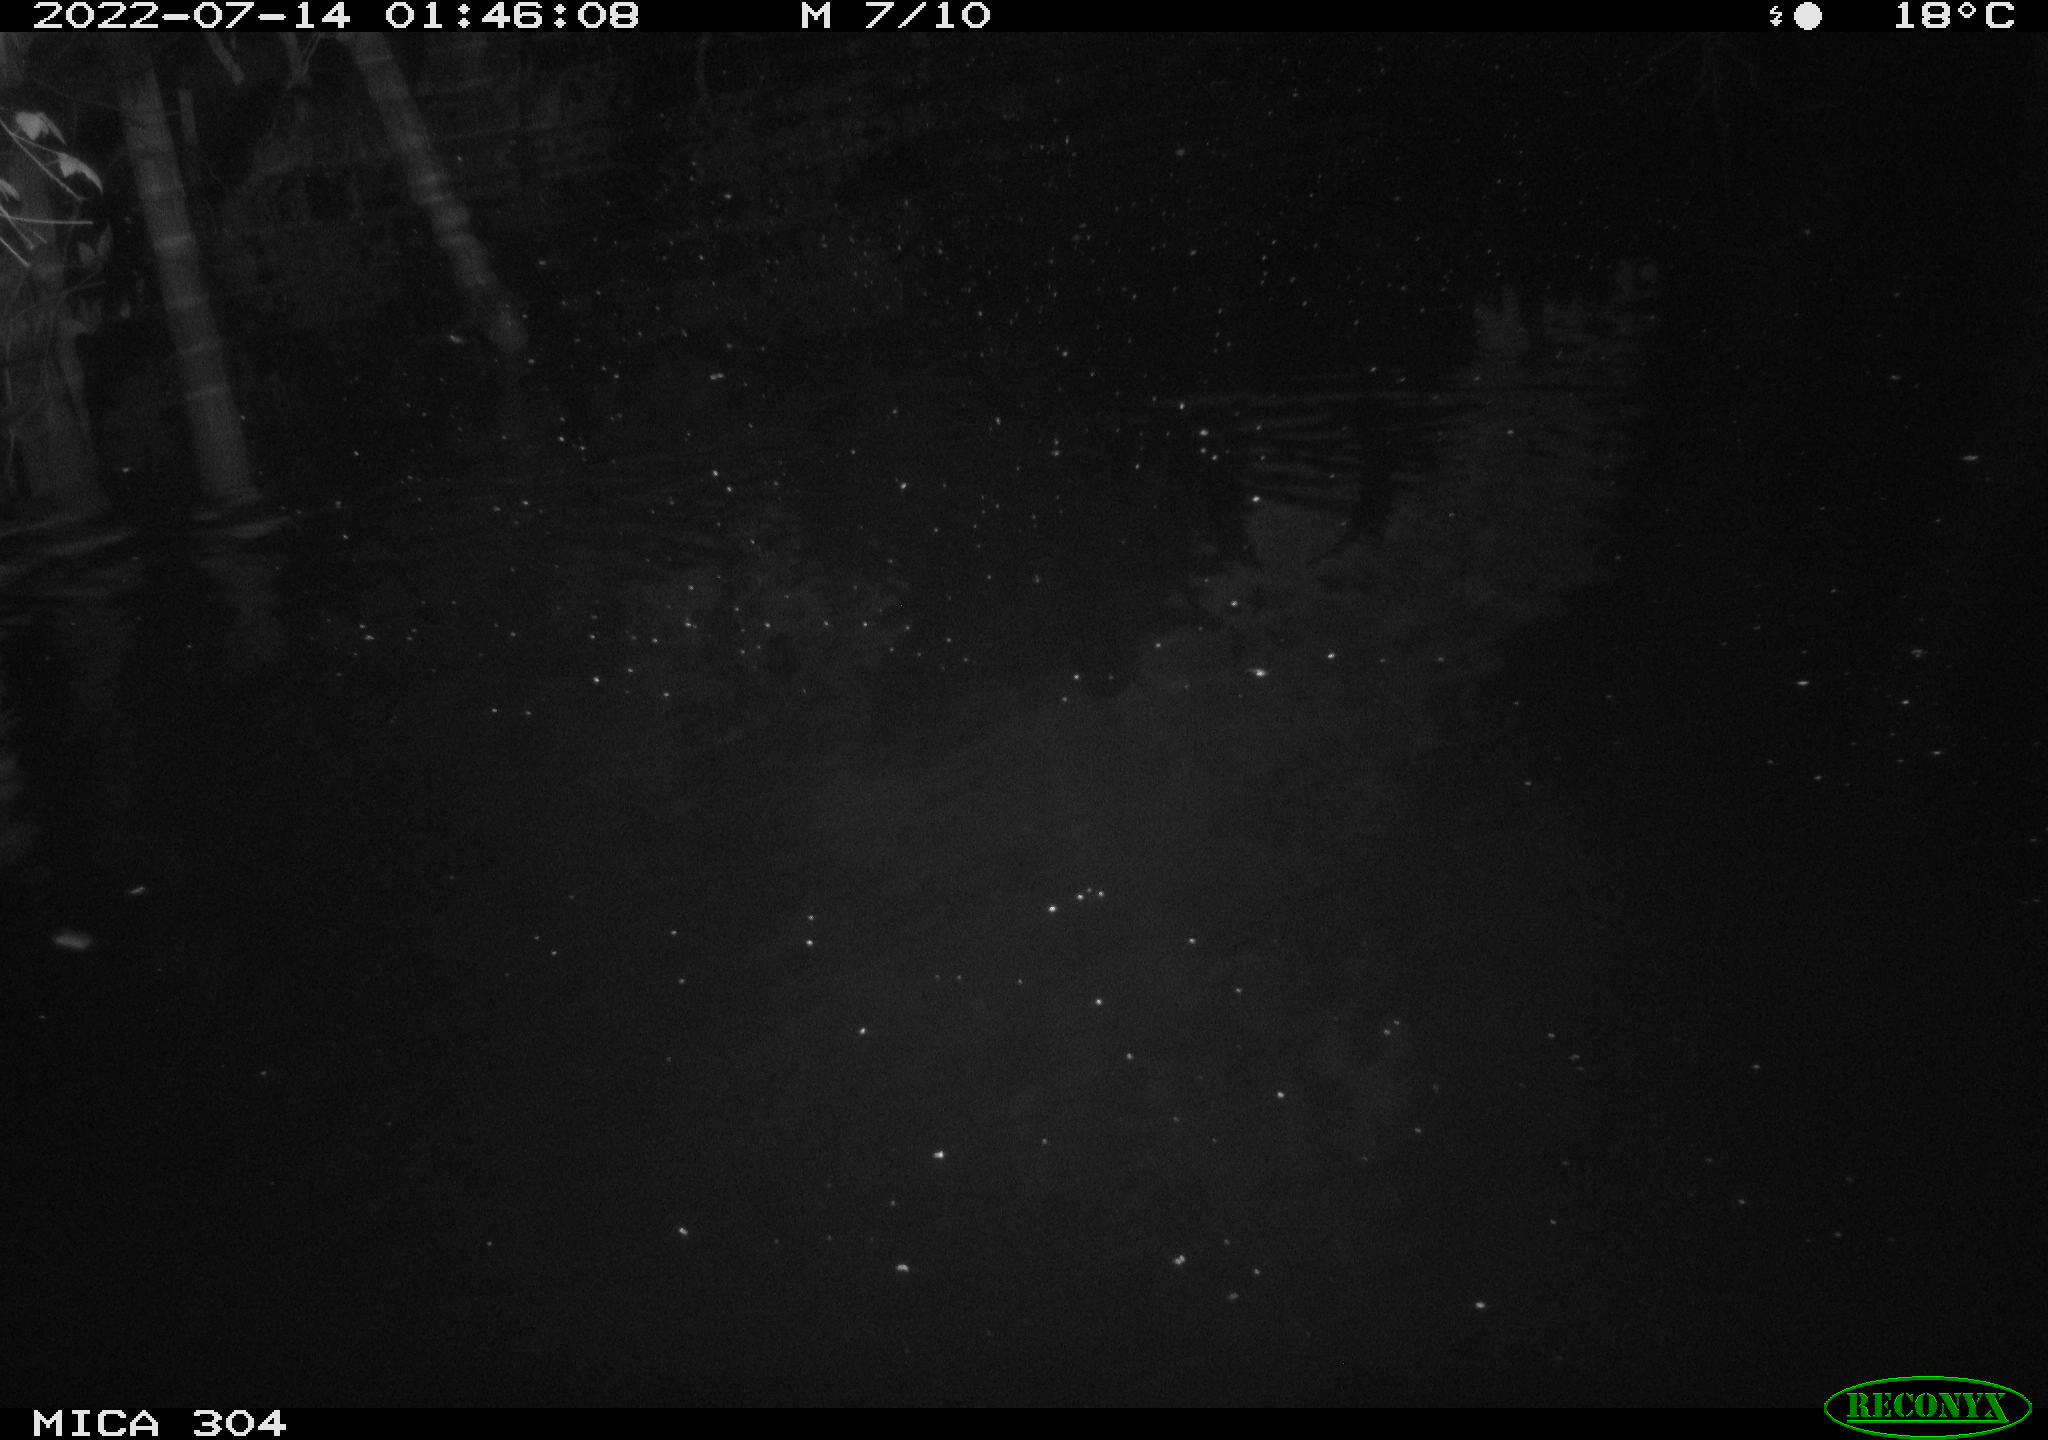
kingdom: Animalia
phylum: Chordata
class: Mammalia
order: Rodentia
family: Muridae
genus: Rattus
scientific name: Rattus norvegicus
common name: Brown rat
